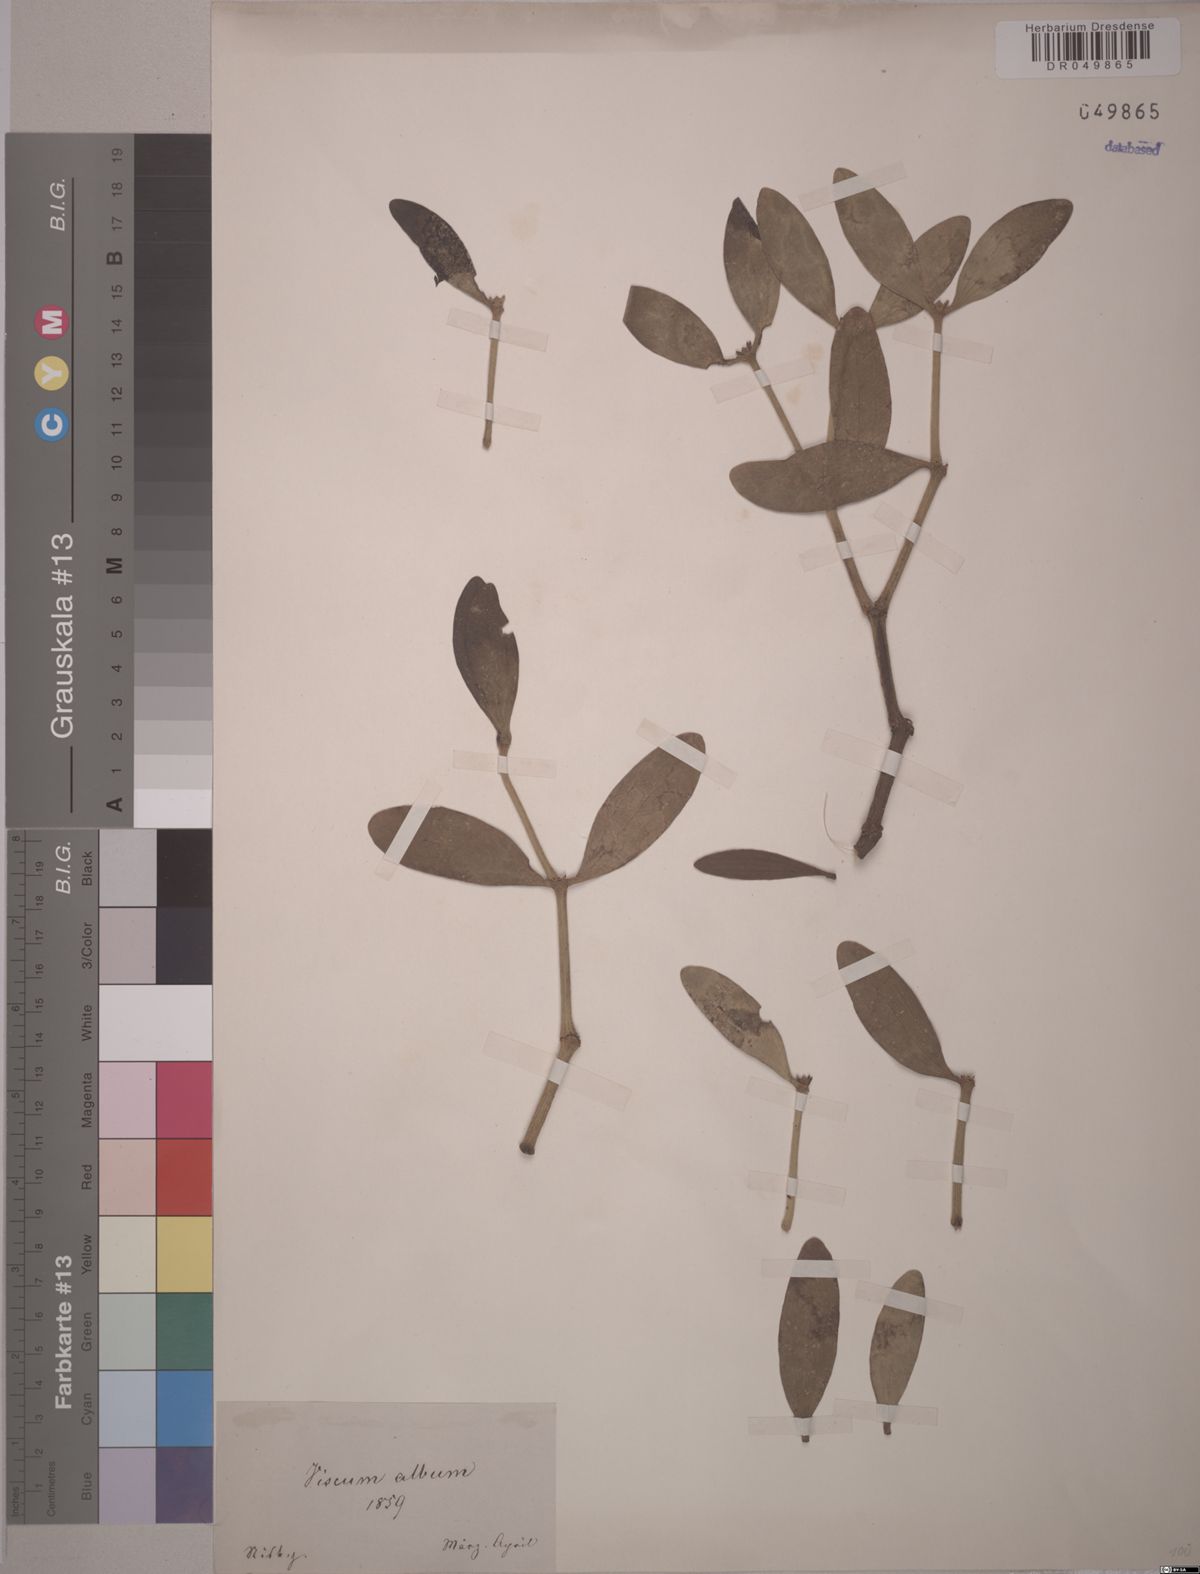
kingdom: Plantae
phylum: Tracheophyta
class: Magnoliopsida
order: Santalales
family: Viscaceae
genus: Viscum
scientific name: Viscum album
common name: Mistletoe
